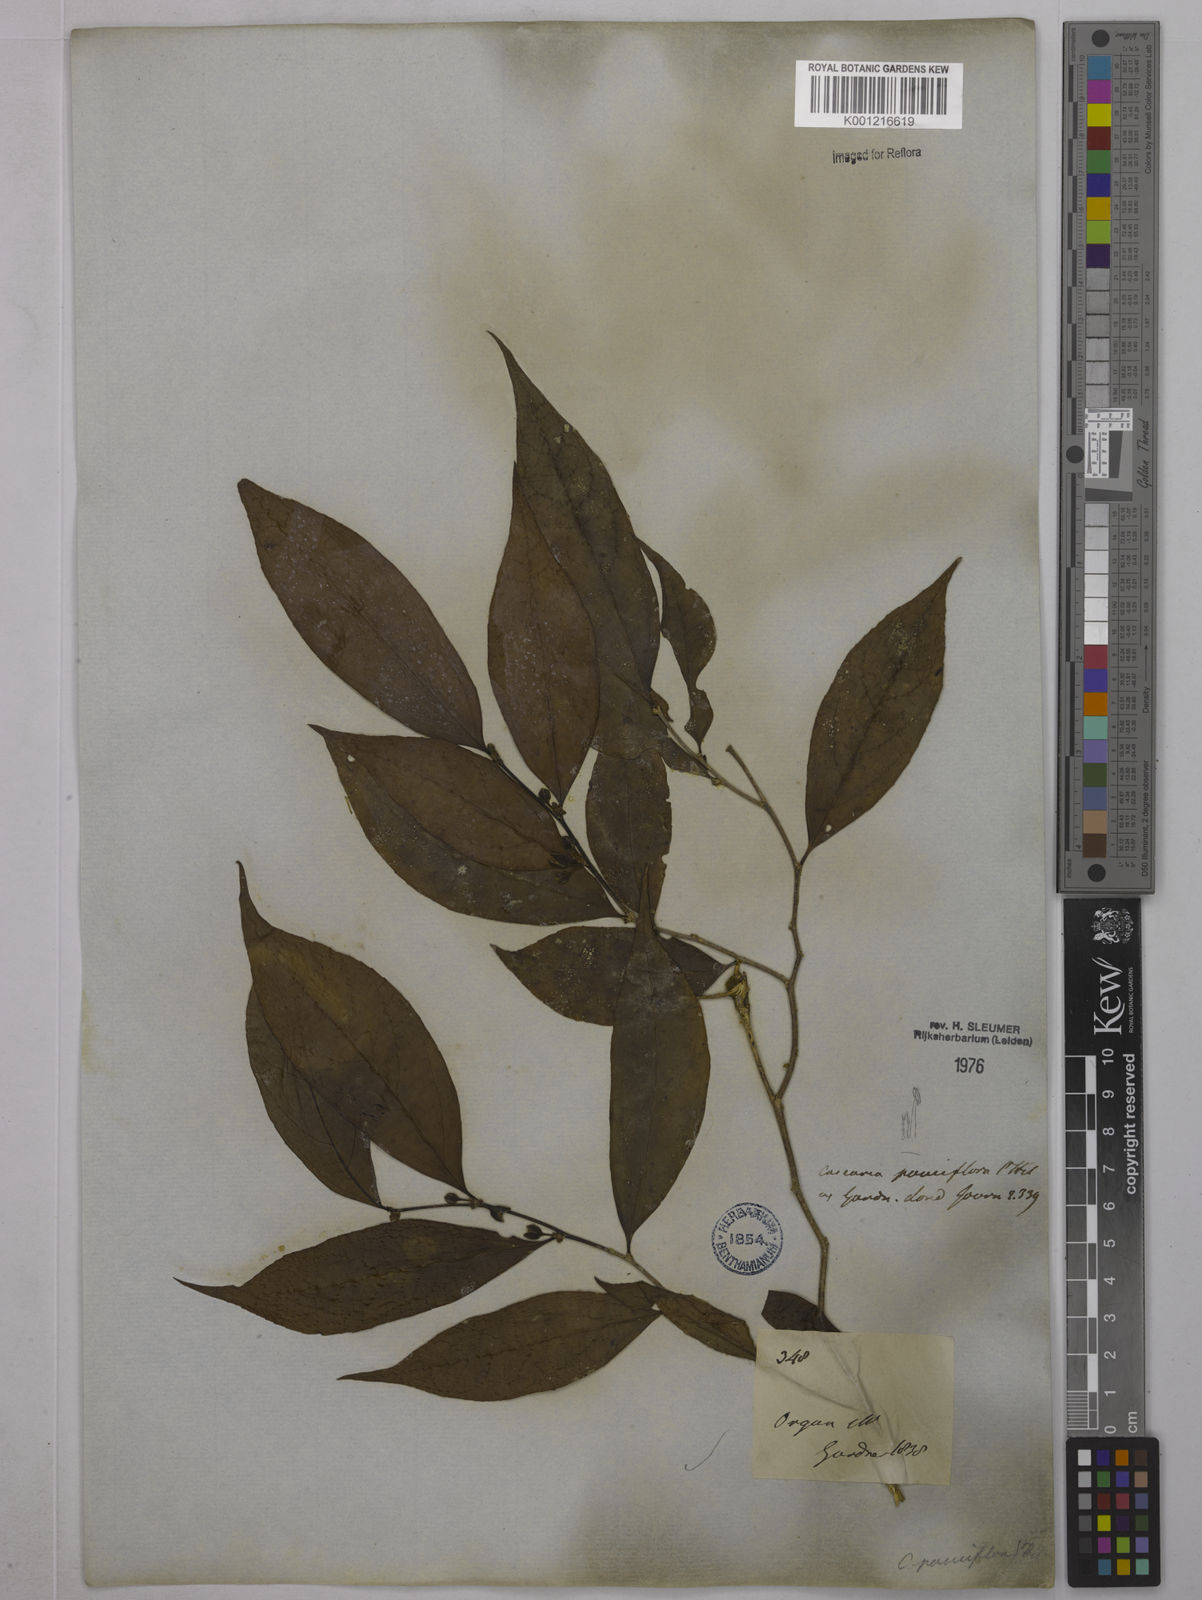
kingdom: Plantae
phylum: Tracheophyta
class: Magnoliopsida
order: Malpighiales
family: Salicaceae
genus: Casearia
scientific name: Casearia pauciflora
